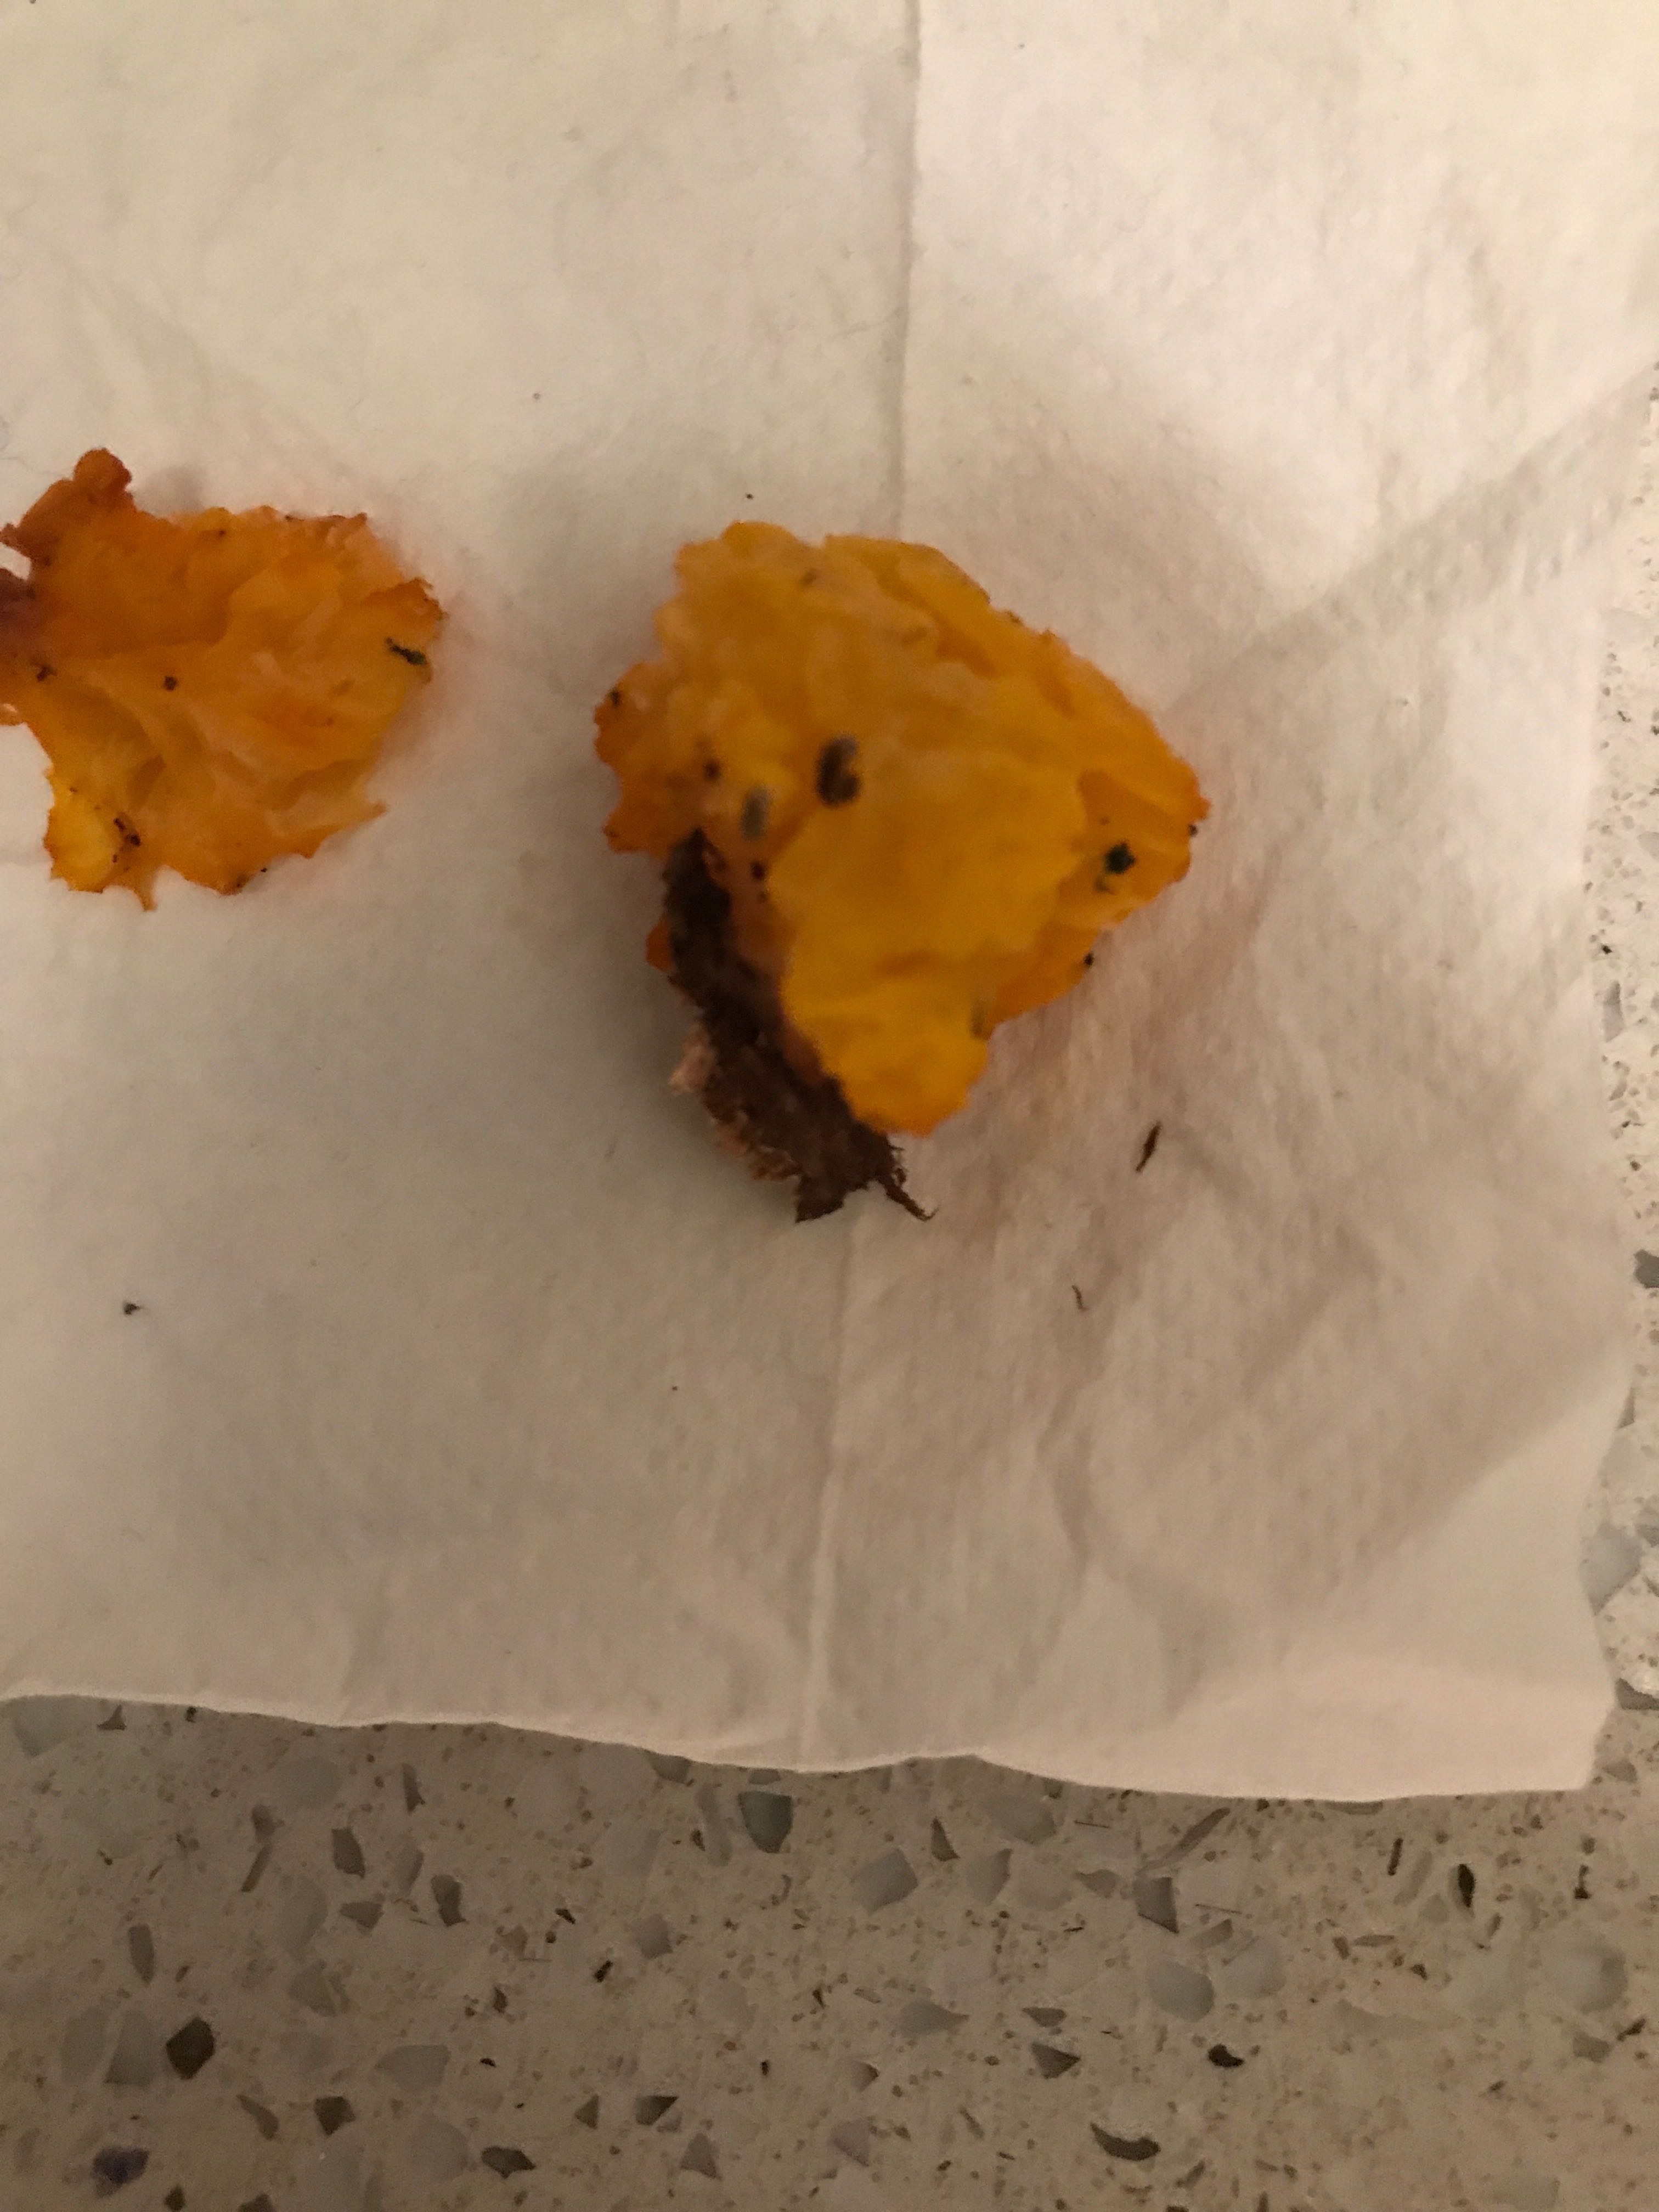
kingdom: Fungi
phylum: Basidiomycota
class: Tremellomycetes
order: Tremellales
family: Tremellaceae
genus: Tremella
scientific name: Tremella mesenterica
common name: gul bævresvamp
